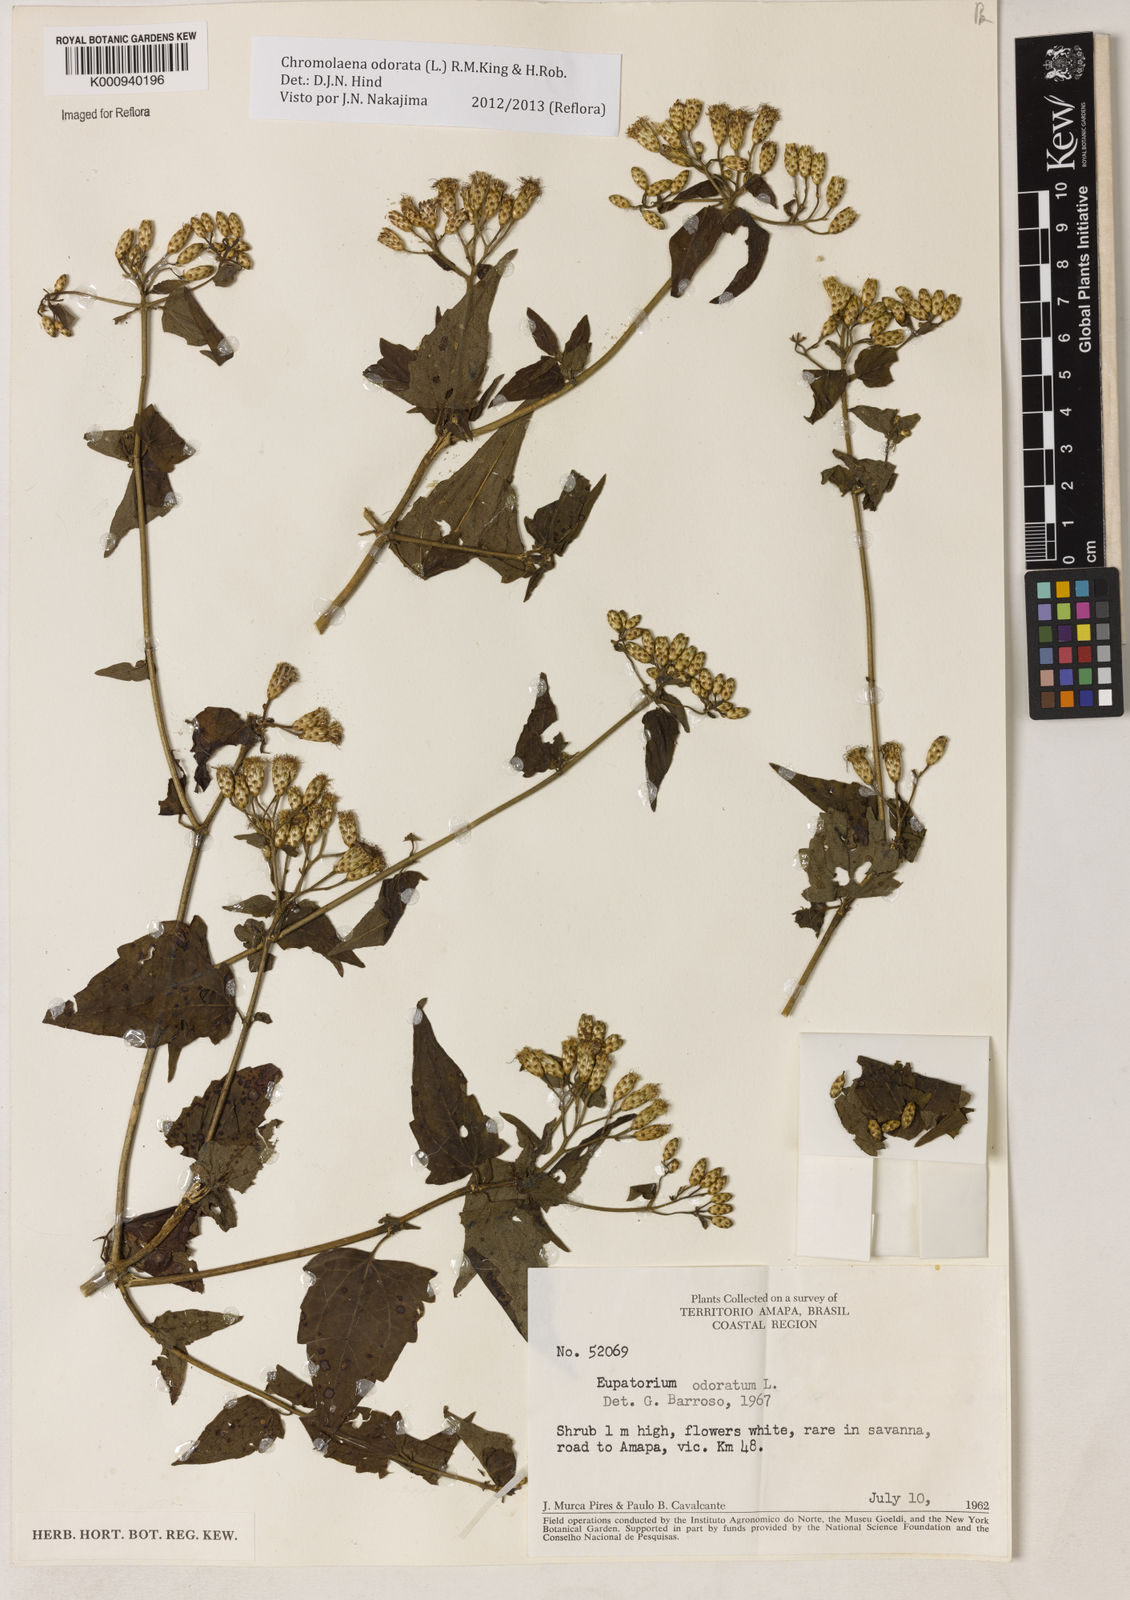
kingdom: Plantae
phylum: Tracheophyta
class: Magnoliopsida
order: Asterales
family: Asteraceae
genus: Chromolaena
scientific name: Chromolaena odorata
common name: Siamweed
